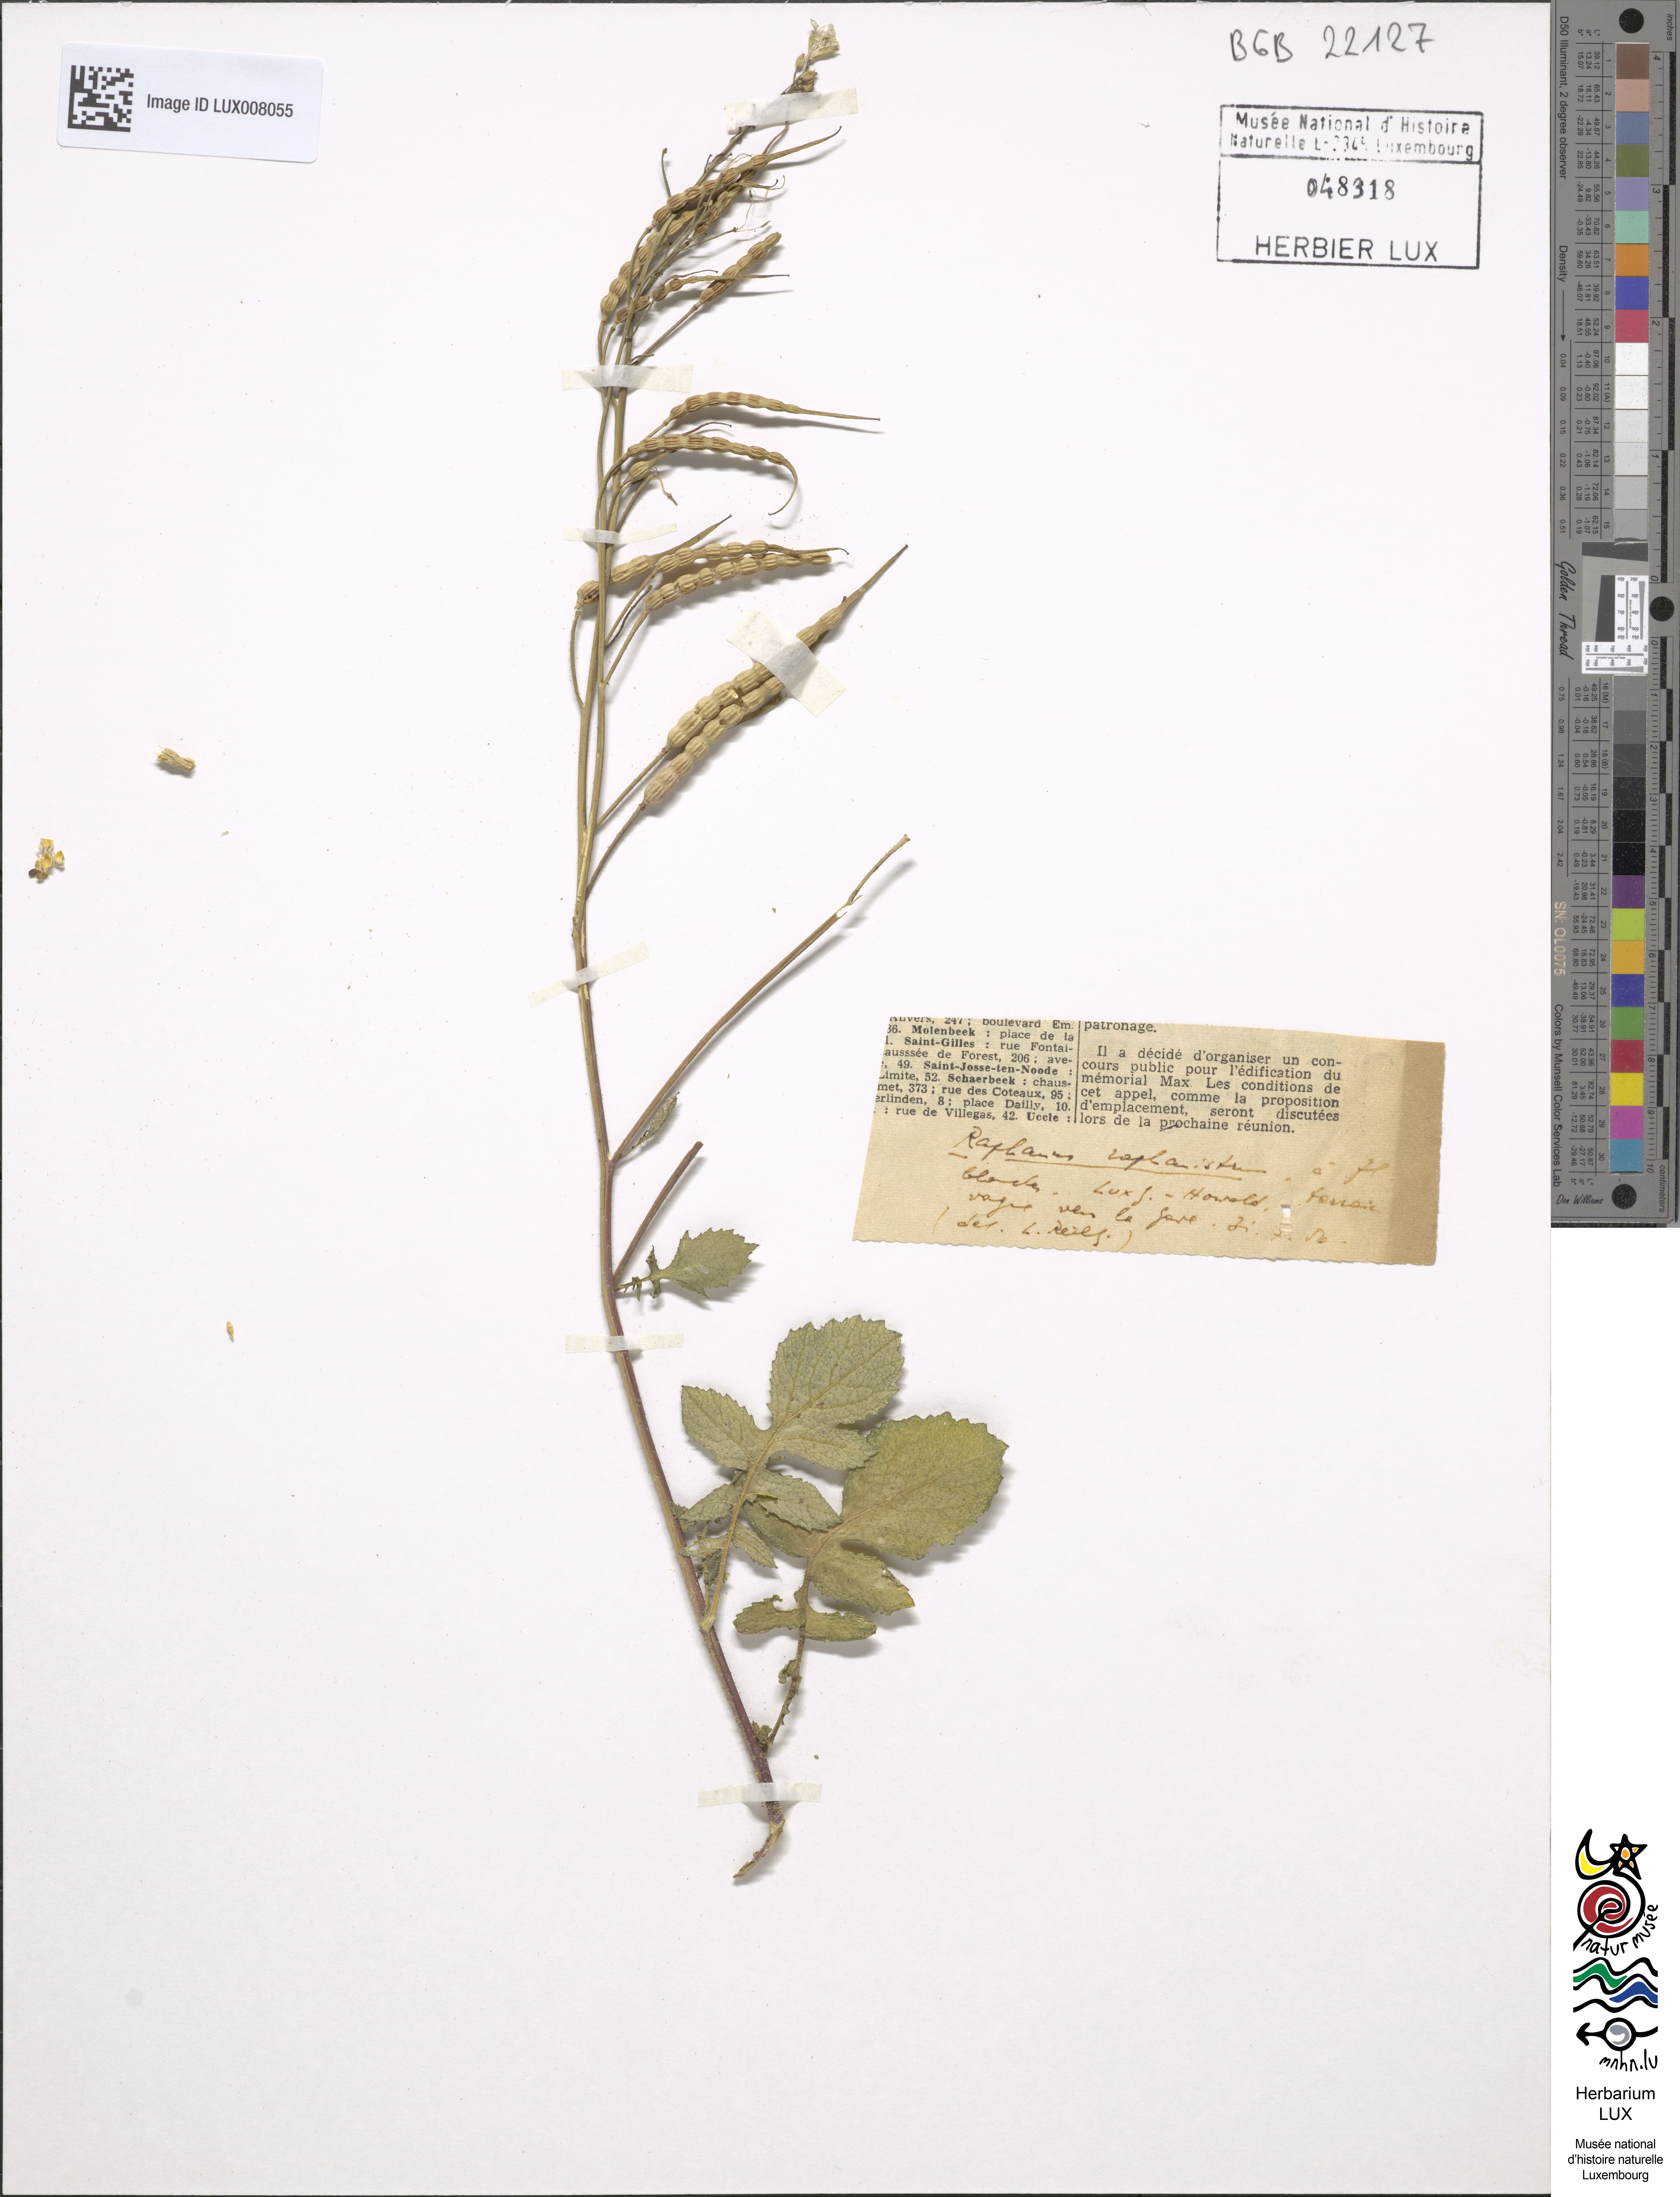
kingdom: Plantae
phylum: Tracheophyta
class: Magnoliopsida
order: Brassicales
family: Brassicaceae
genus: Raphanus
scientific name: Raphanus raphanistrum
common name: Wild radish
